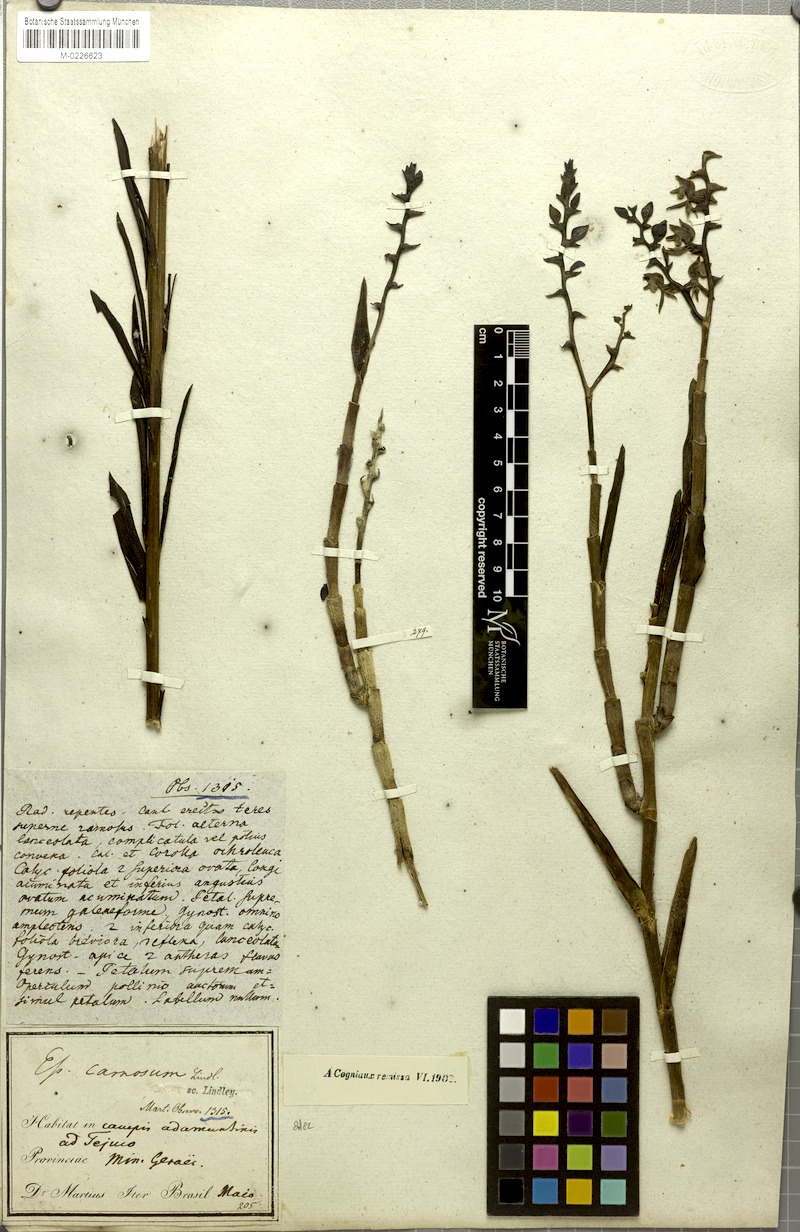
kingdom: Plantae
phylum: Tracheophyta
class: Liliopsida
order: Asparagales
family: Orchidaceae
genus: Epidendrum
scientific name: Epidendrum durum
